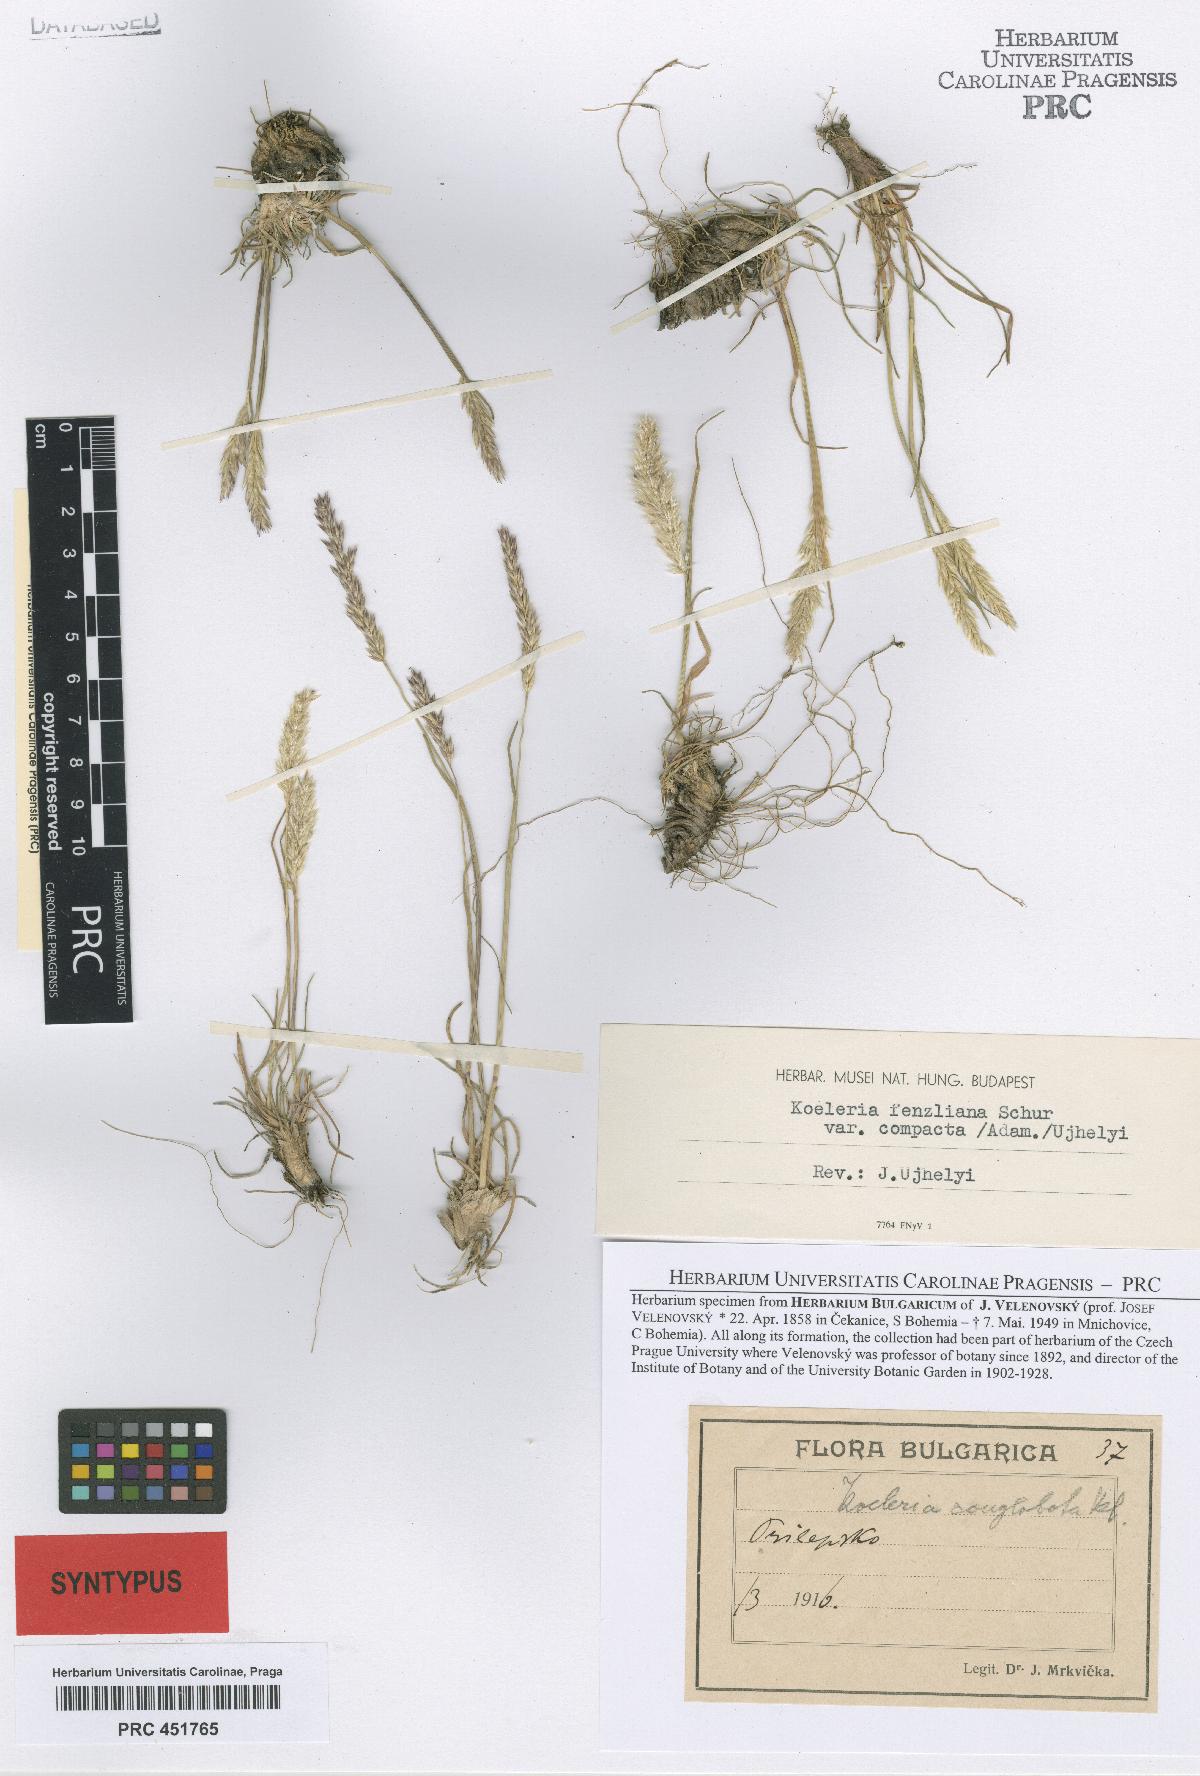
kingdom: Plantae
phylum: Tracheophyta
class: Liliopsida
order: Poales
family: Poaceae
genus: Koeleria
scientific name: Koeleria macrantha
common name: Crested hair-grass
